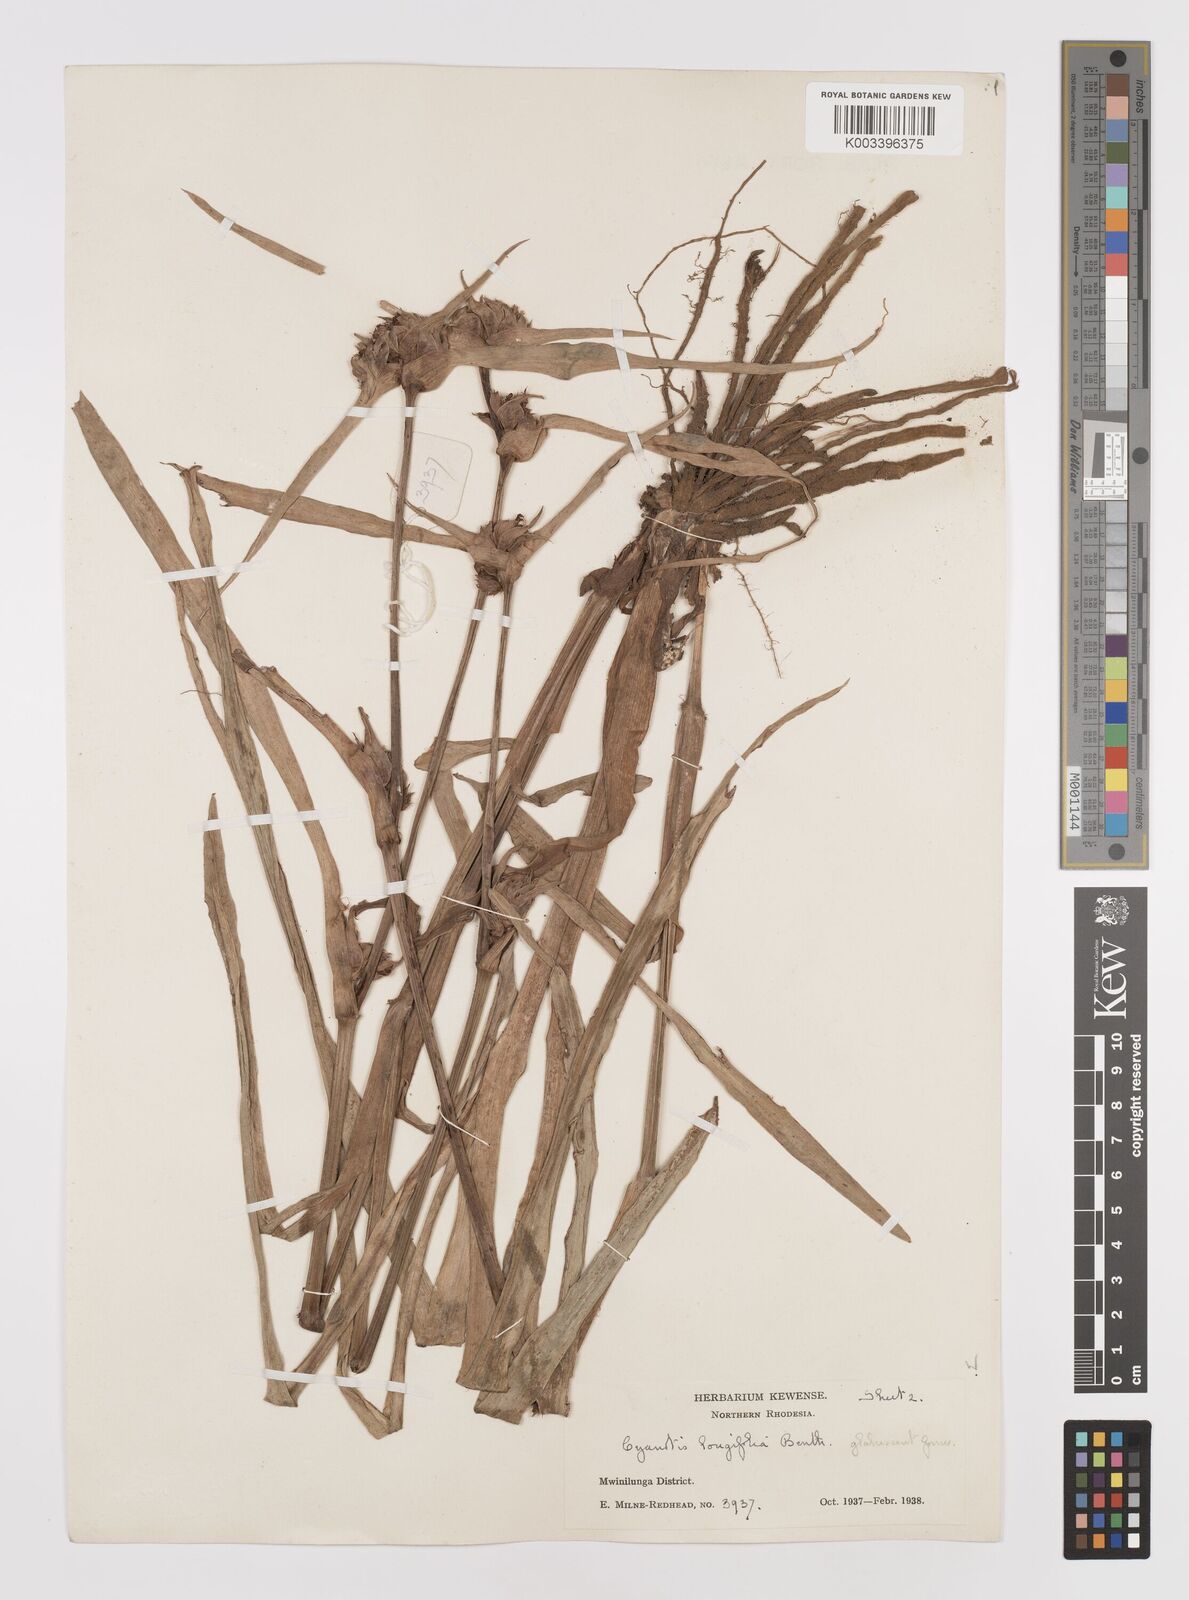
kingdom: Plantae
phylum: Tracheophyta
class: Liliopsida
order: Commelinales
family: Commelinaceae
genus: Cyanotis
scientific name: Cyanotis longifolia
